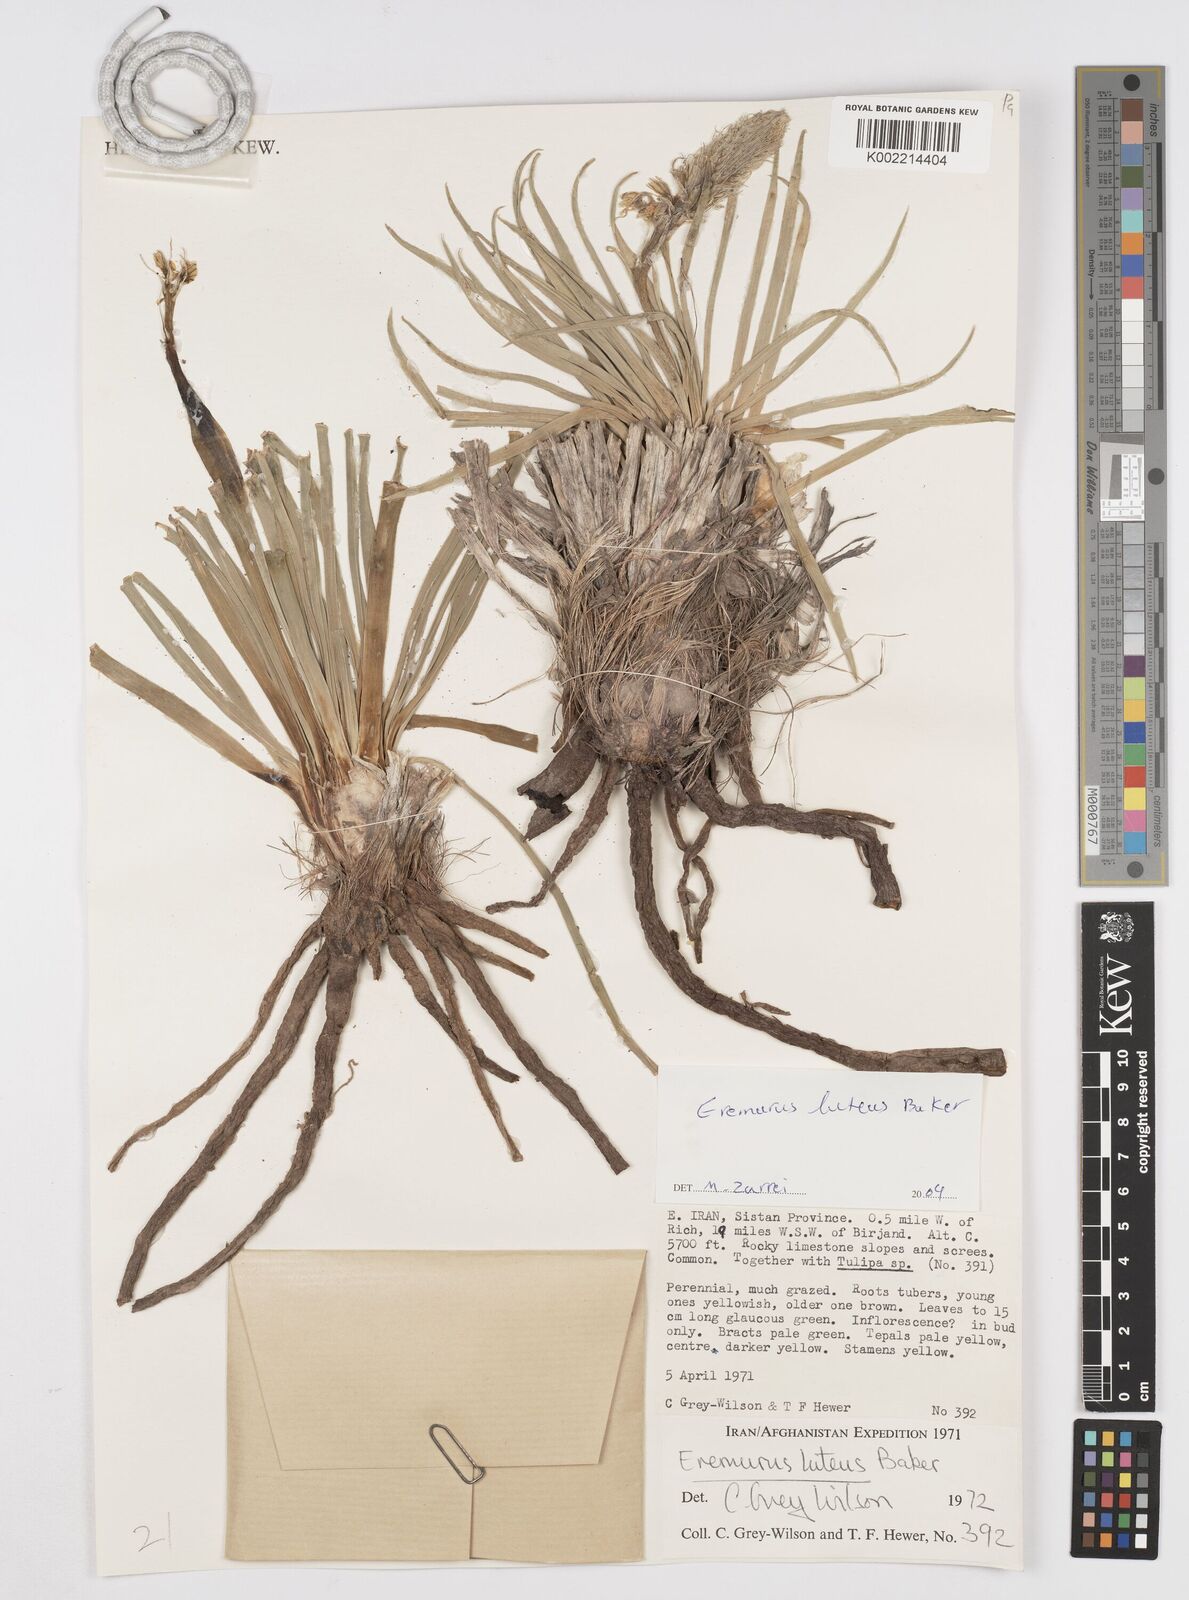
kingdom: Plantae
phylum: Tracheophyta
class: Liliopsida
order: Asparagales
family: Asphodelaceae
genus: Eremurus
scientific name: Eremurus luteus
